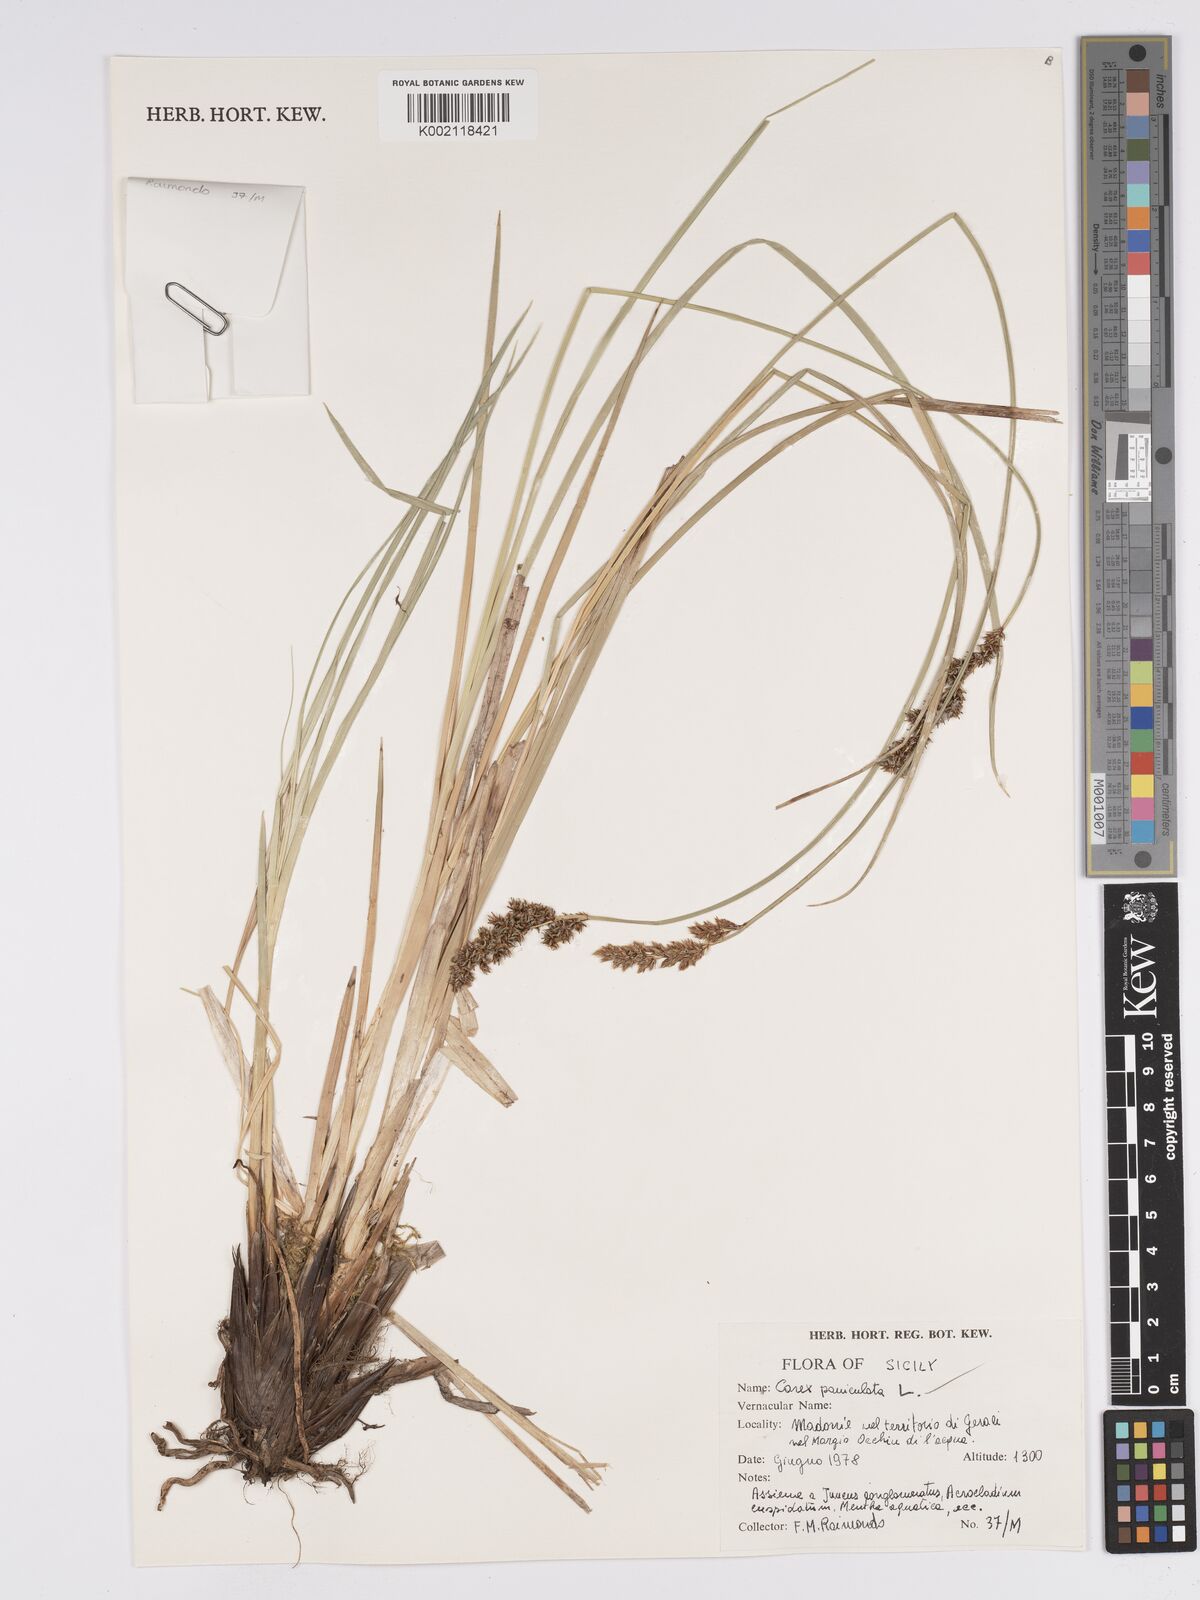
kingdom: Plantae
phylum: Tracheophyta
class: Liliopsida
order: Poales
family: Cyperaceae
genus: Carex
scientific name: Carex paniculata
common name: Greater tussock-sedge
